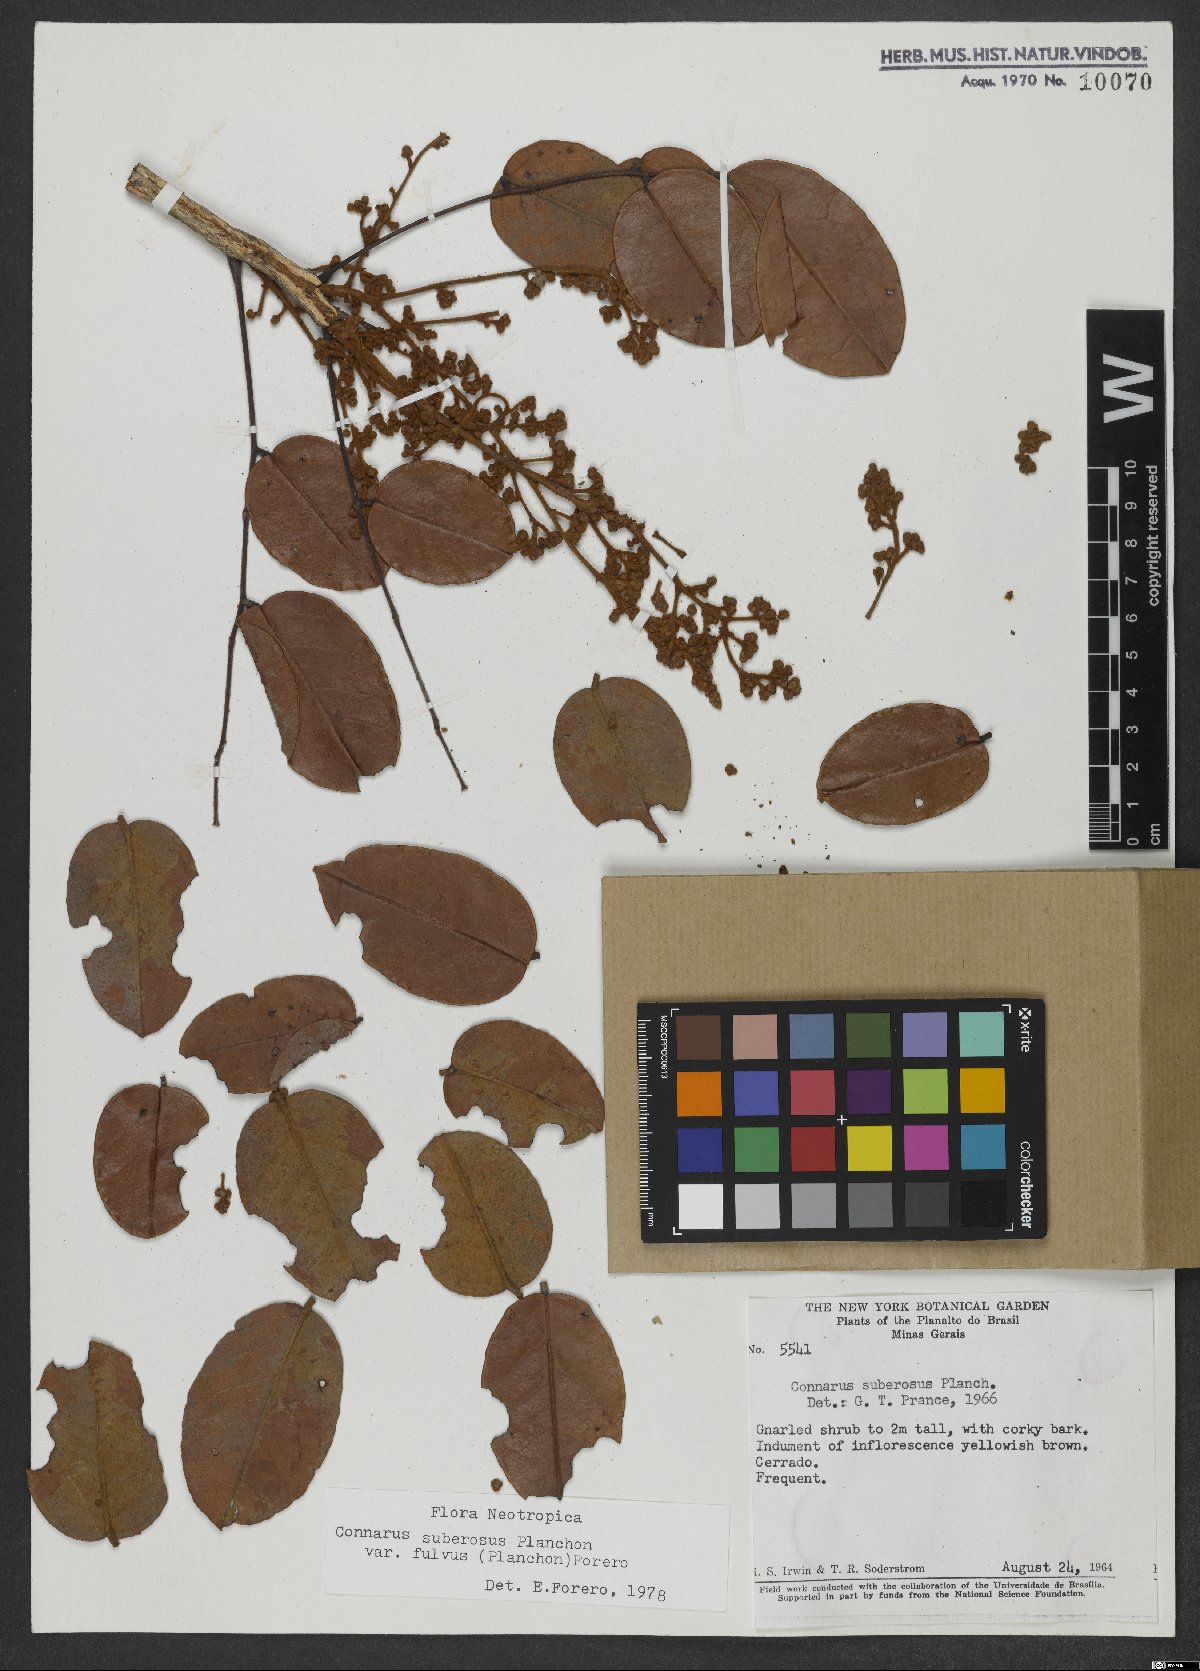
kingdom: Plantae
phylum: Tracheophyta
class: Magnoliopsida
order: Oxalidales
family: Connaraceae
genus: Connarus
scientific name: Connarus suberosus
